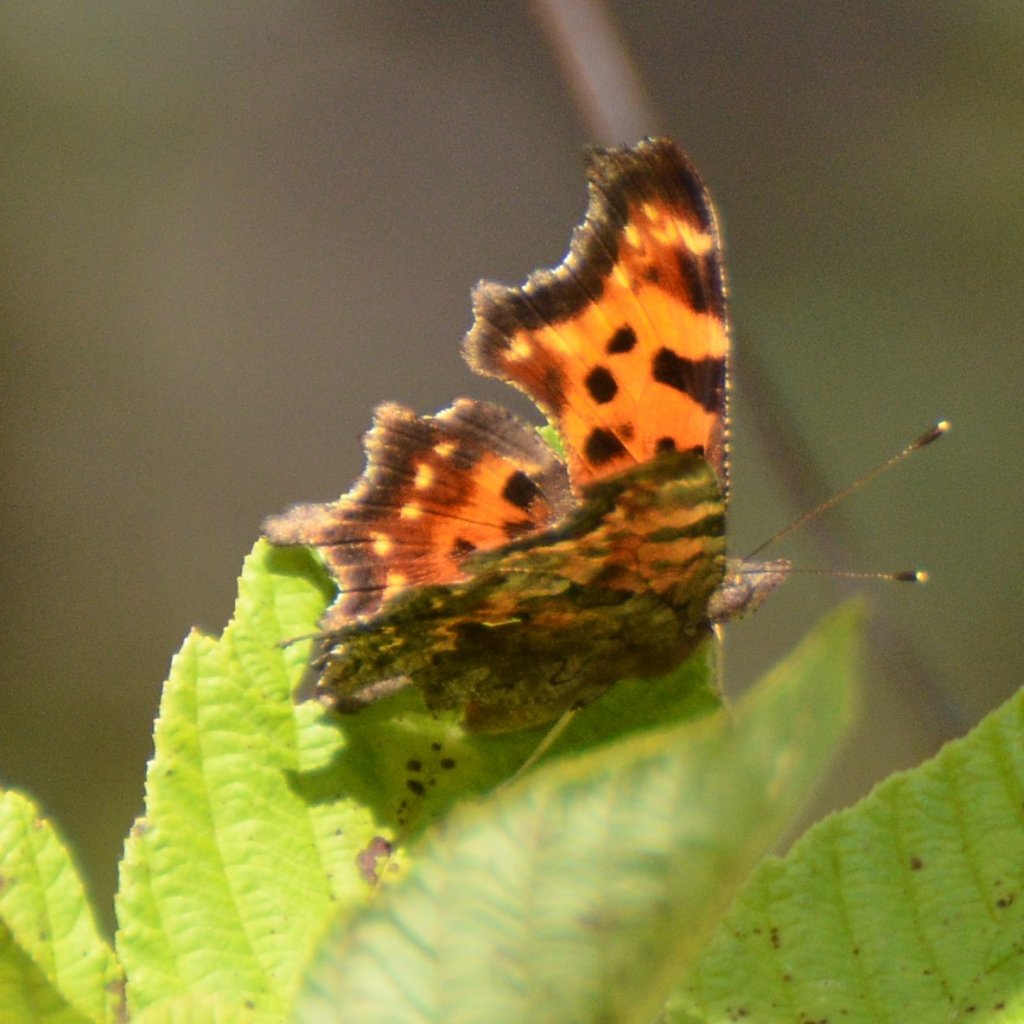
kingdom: Animalia
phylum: Arthropoda
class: Insecta
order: Lepidoptera
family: Nymphalidae
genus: Polygonia
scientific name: Polygonia faunus
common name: Green Comma
